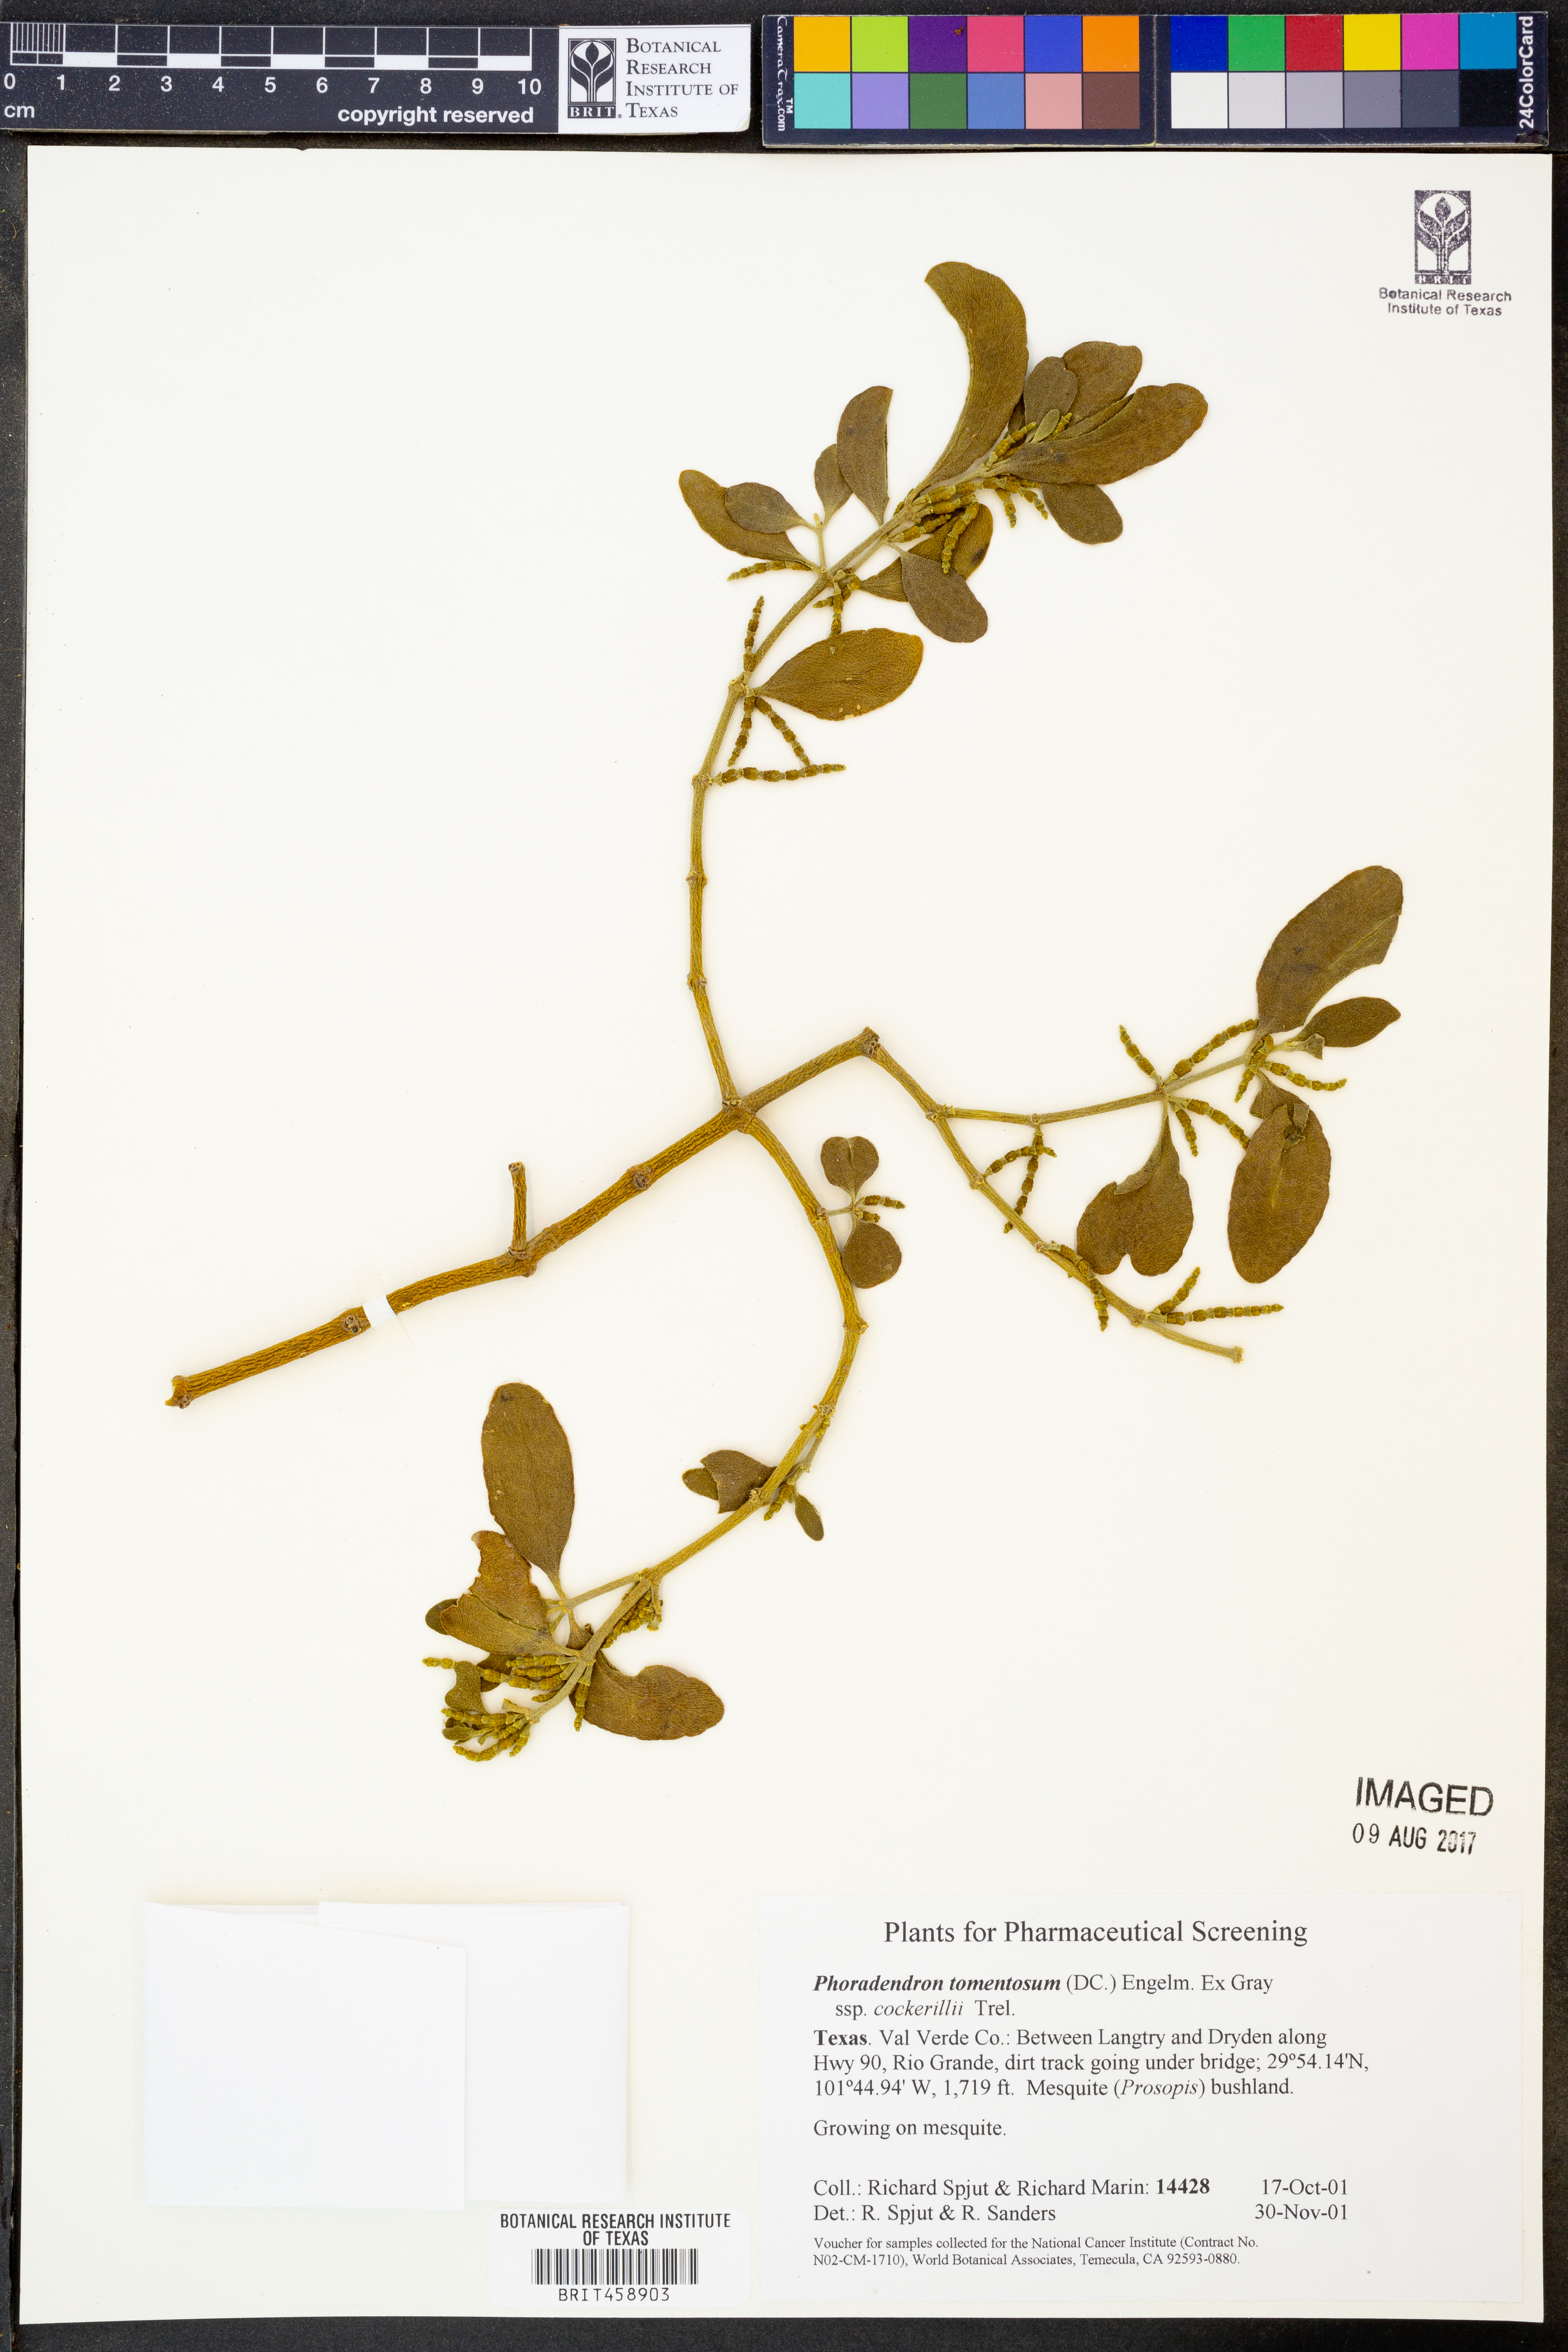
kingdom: Plantae
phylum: Tracheophyta
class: Magnoliopsida
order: Santalales
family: Viscaceae
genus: Phoradendron
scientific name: Phoradendron leucarpum
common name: Pacific mistletoe
